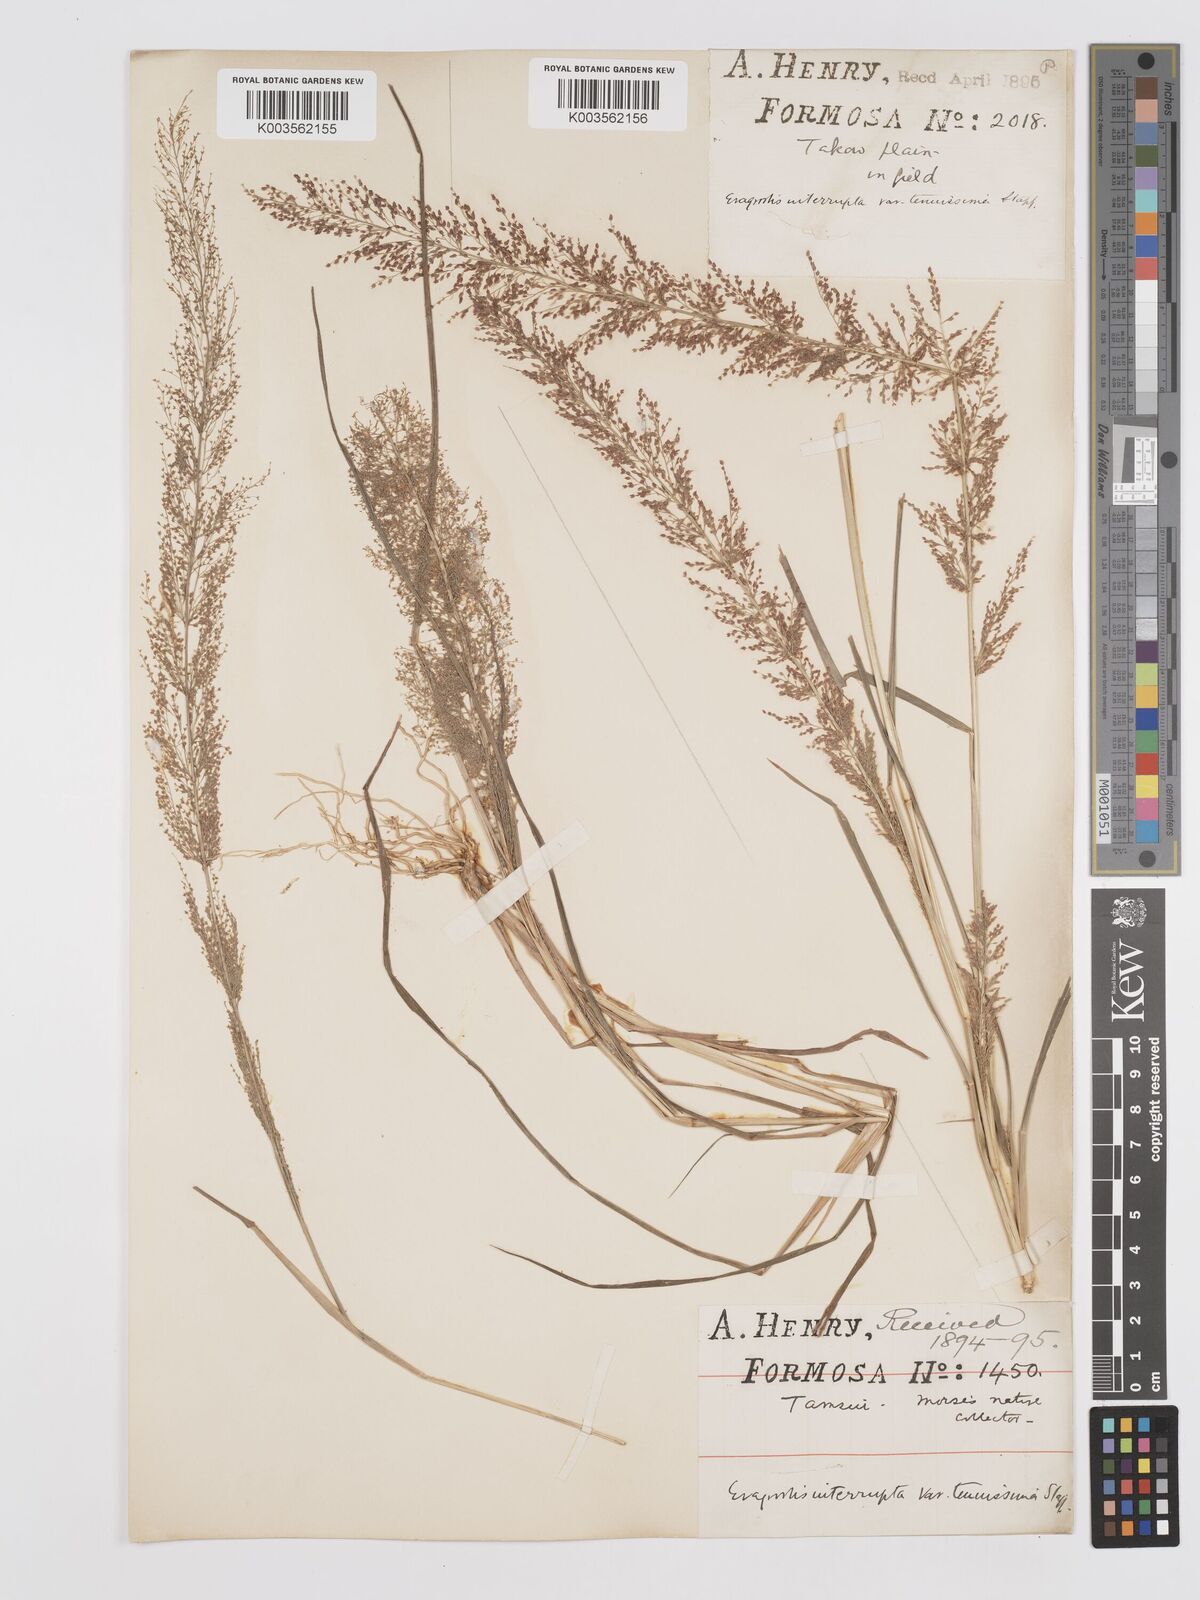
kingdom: Plantae
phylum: Tracheophyta
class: Liliopsida
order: Poales
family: Poaceae
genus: Eragrostis
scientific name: Eragrostis japonica
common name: Pond lovegrass
